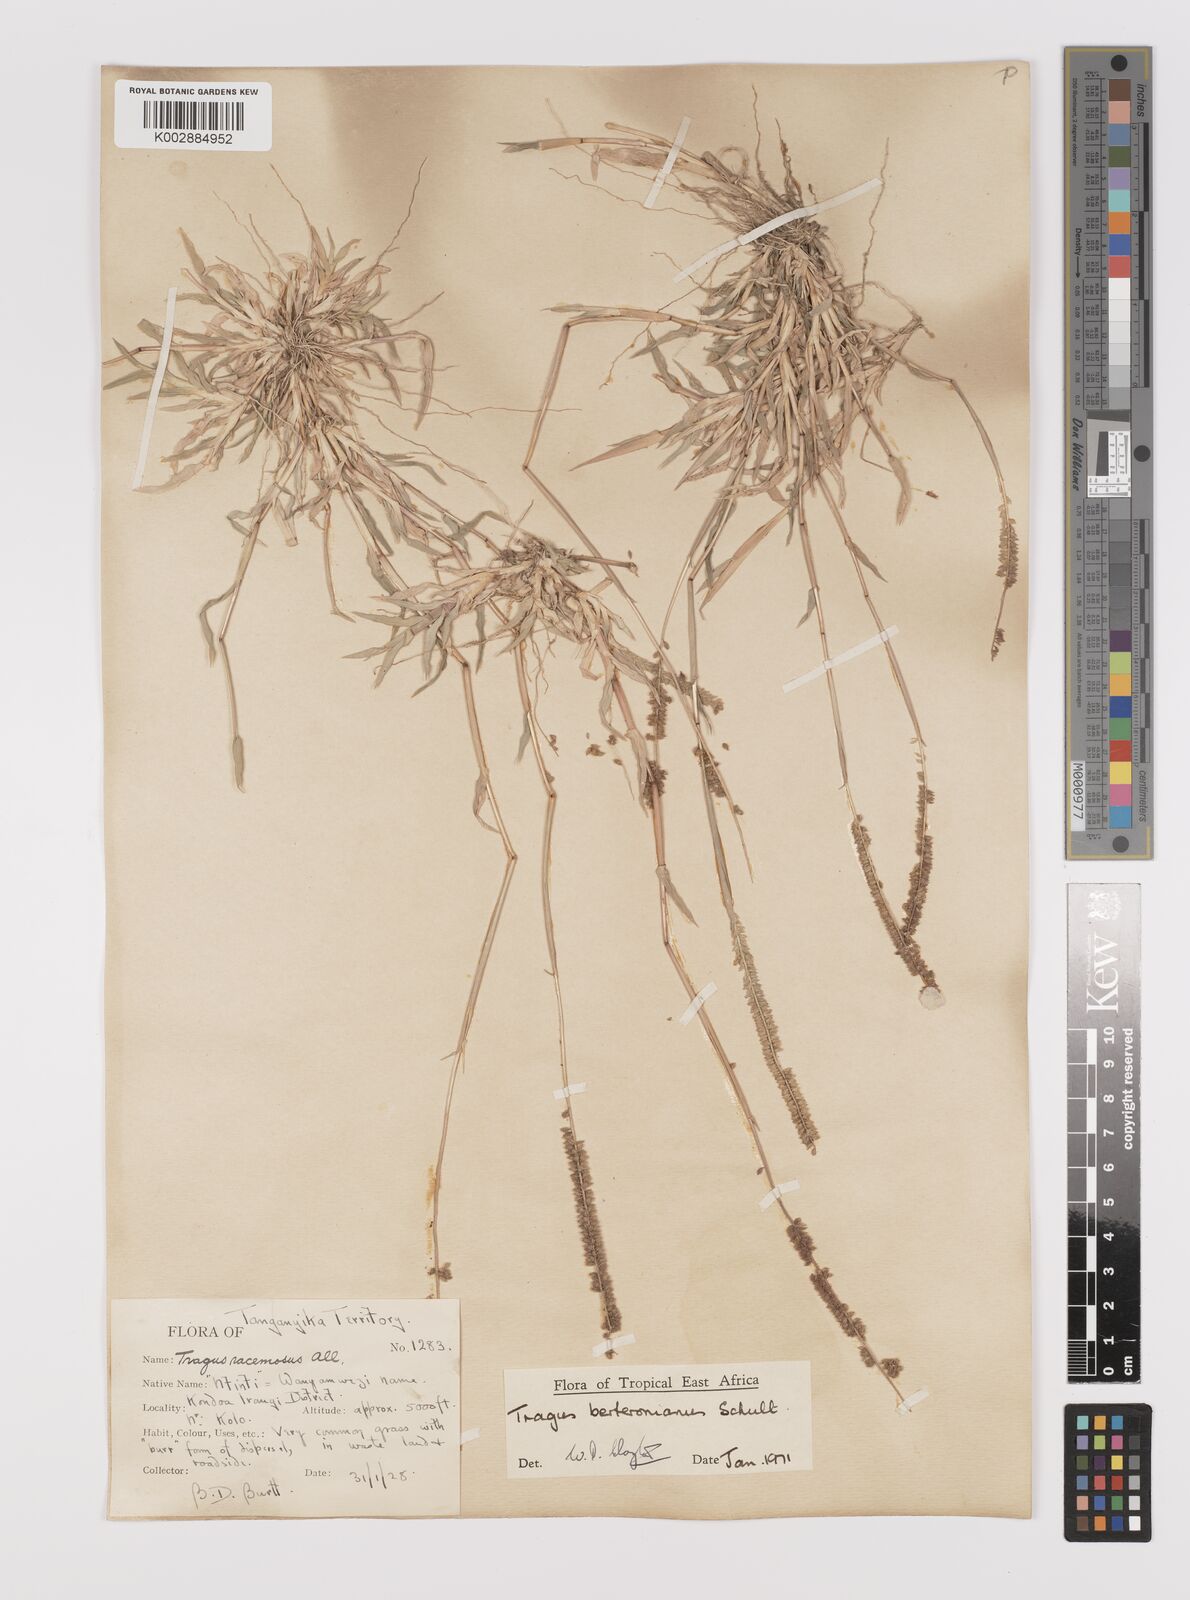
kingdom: Plantae
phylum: Tracheophyta
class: Liliopsida
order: Poales
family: Poaceae
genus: Tragus
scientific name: Tragus berteronianus
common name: African bur-grass
